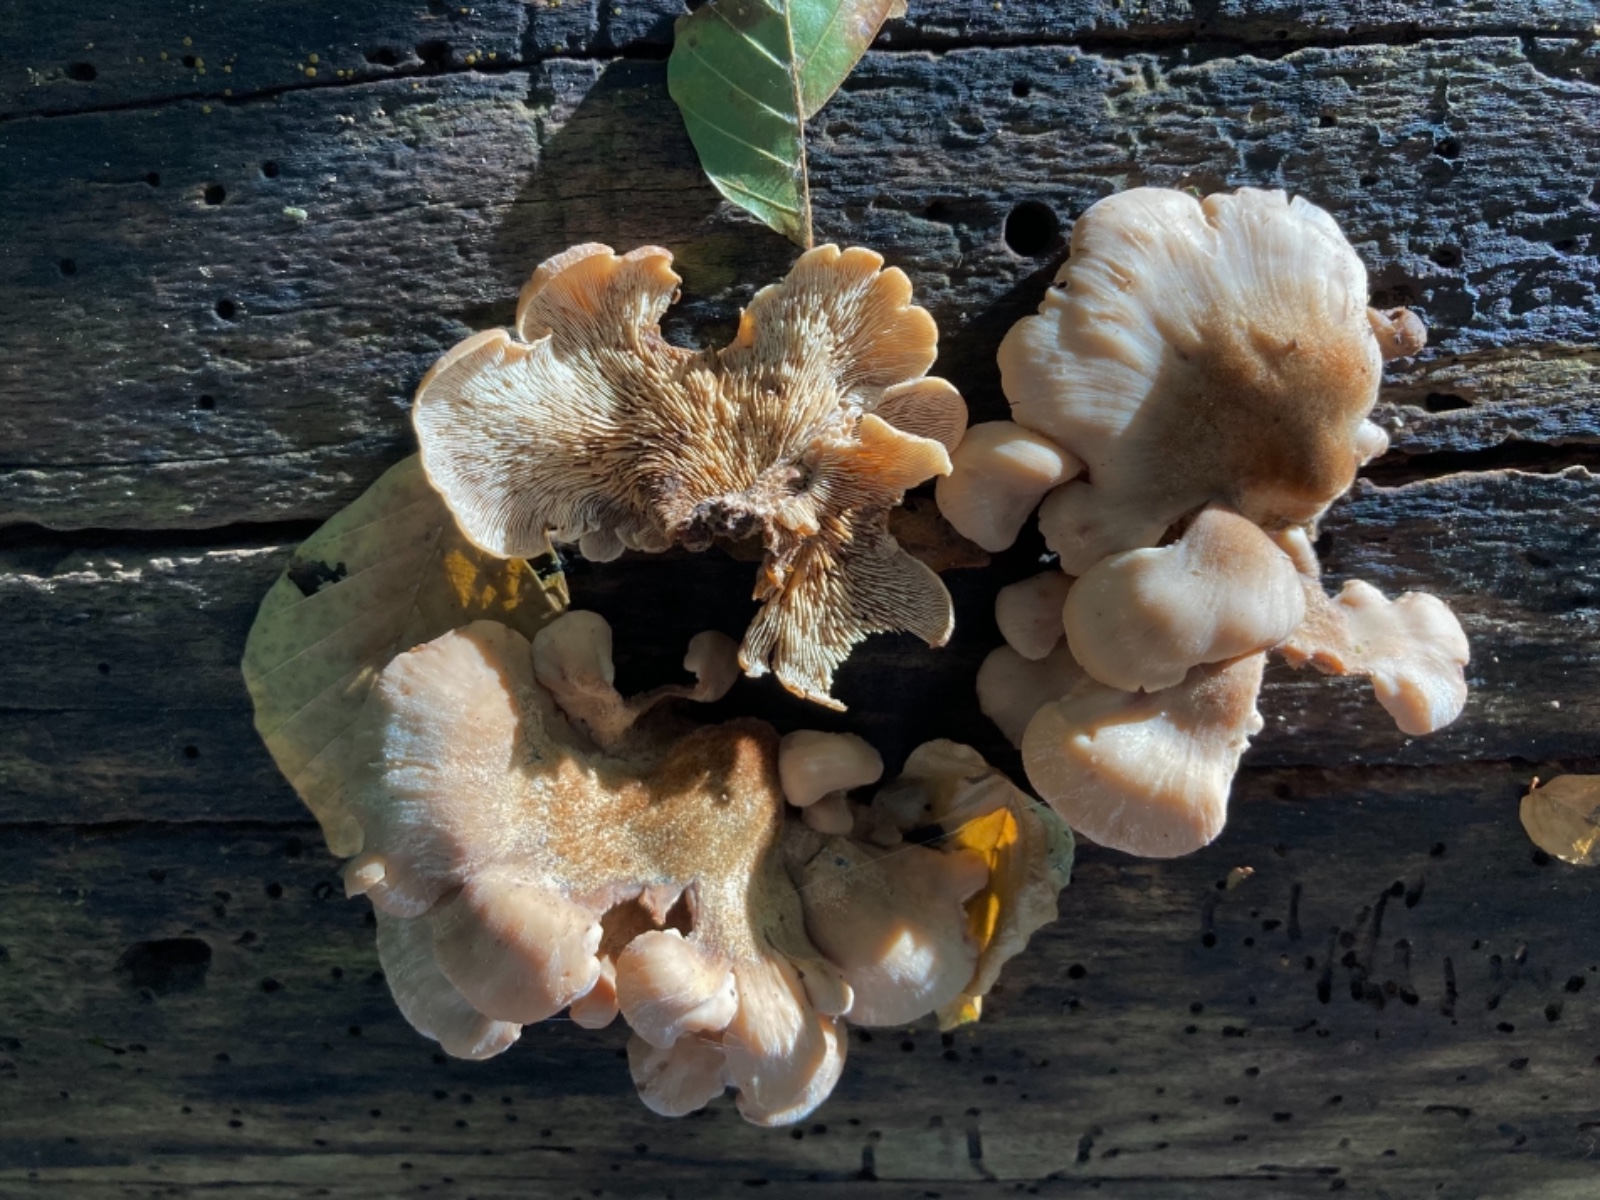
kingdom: Fungi
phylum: Basidiomycota
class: Agaricomycetes
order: Russulales
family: Auriscalpiaceae
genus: Lentinellus
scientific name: Lentinellus ursinus
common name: børstehåret savbladhat
